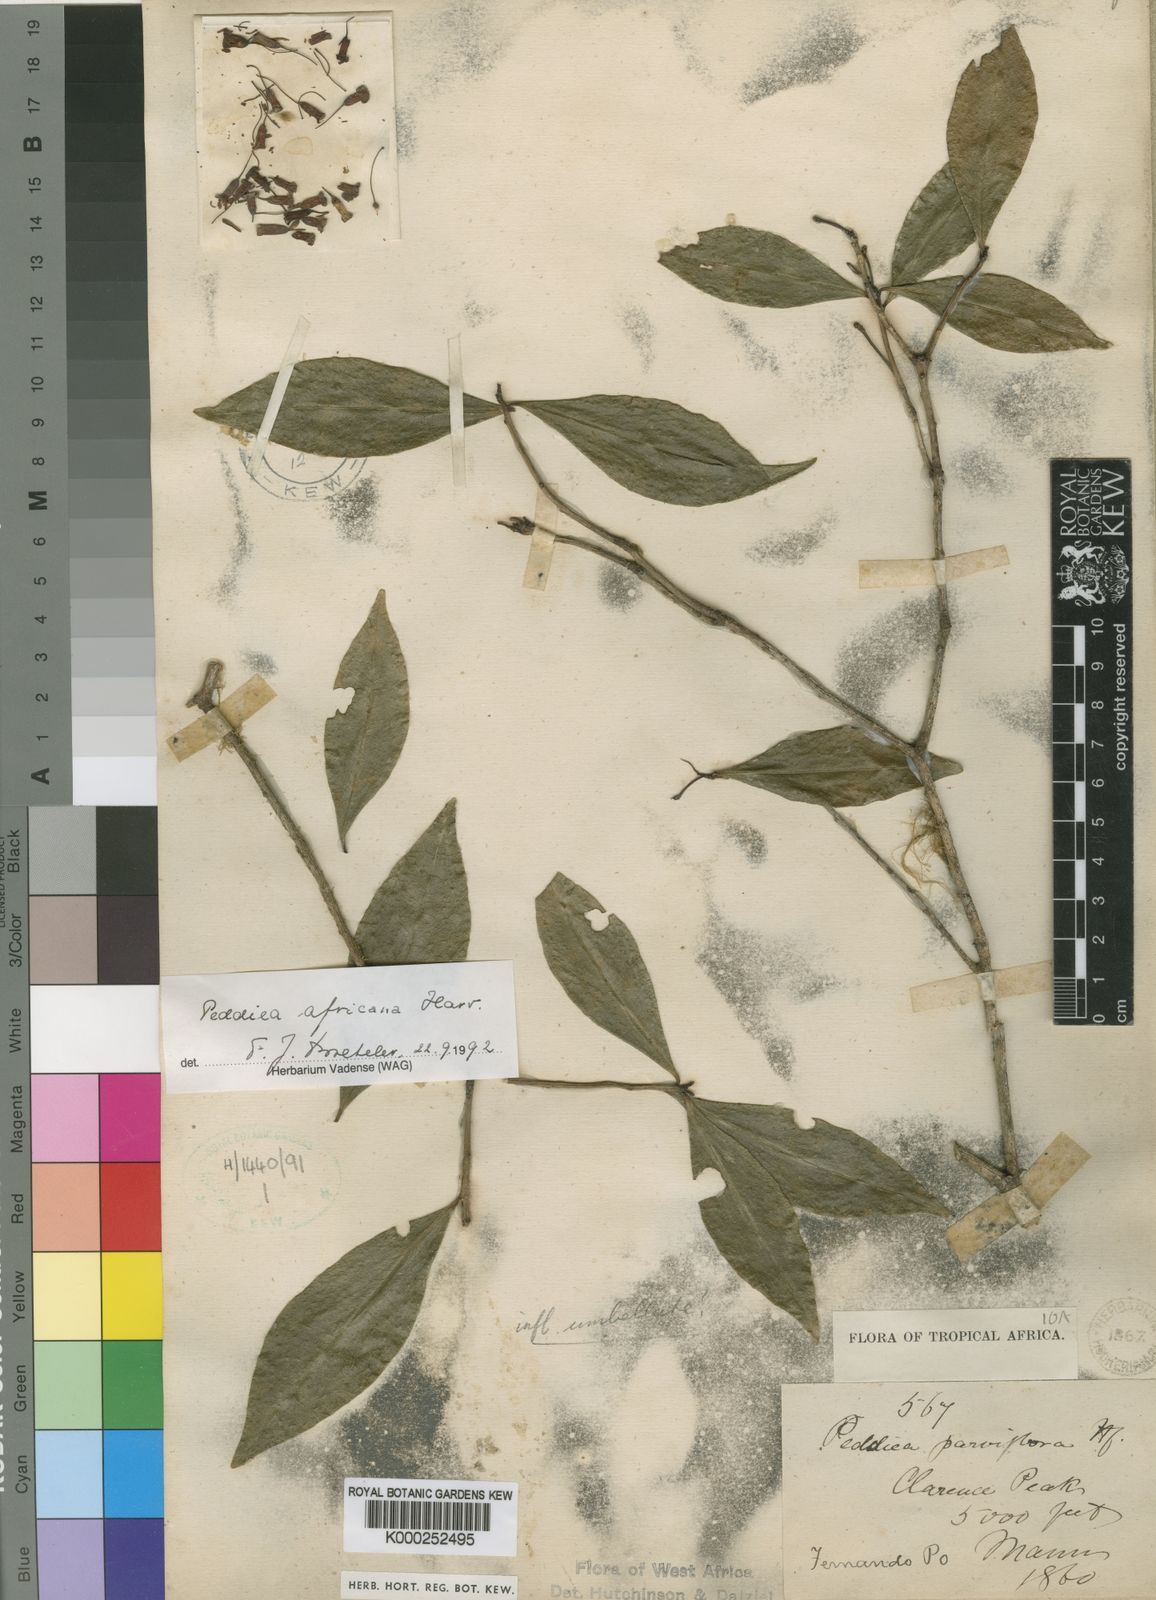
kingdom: Plantae
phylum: Tracheophyta
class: Magnoliopsida
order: Malvales
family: Thymelaeaceae
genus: Peddiea
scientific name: Peddiea africana
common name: Poison olive
